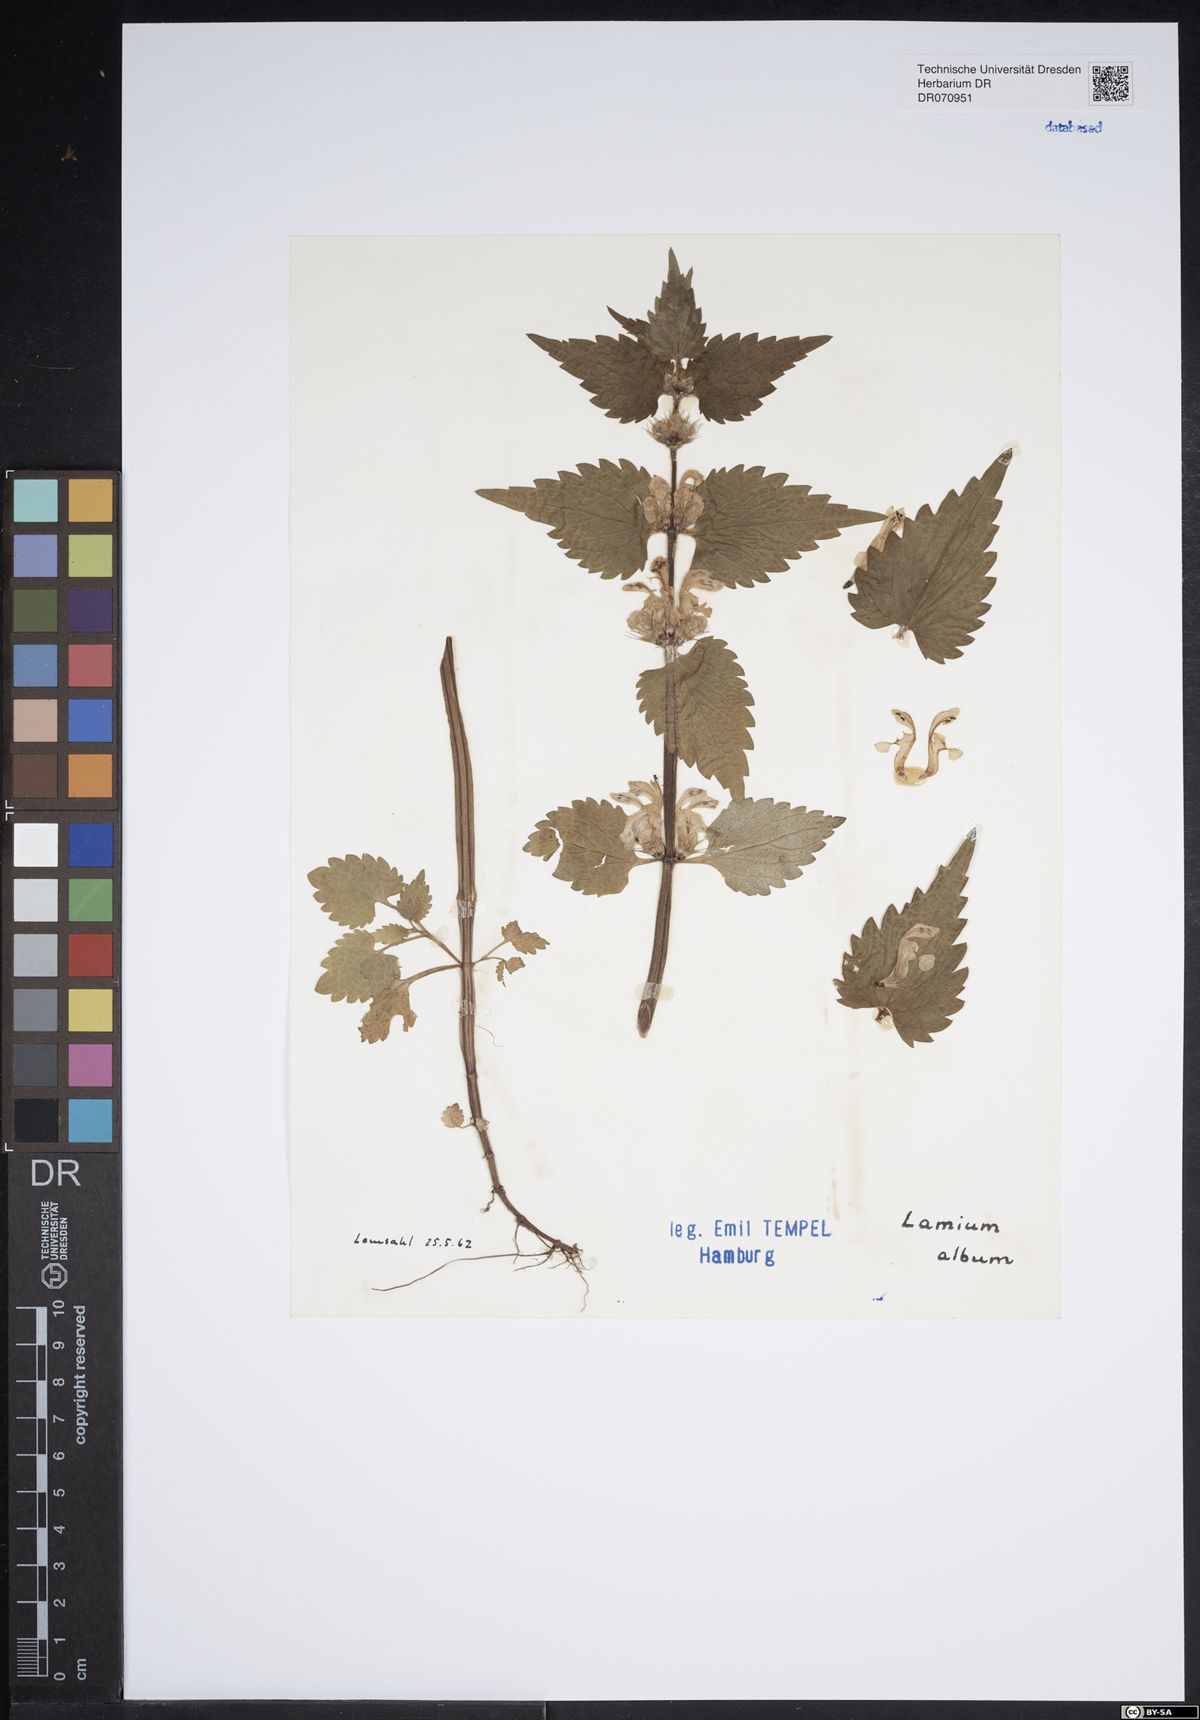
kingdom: Plantae
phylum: Tracheophyta
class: Magnoliopsida
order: Lamiales
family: Lamiaceae
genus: Lamium
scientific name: Lamium album
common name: White dead-nettle
